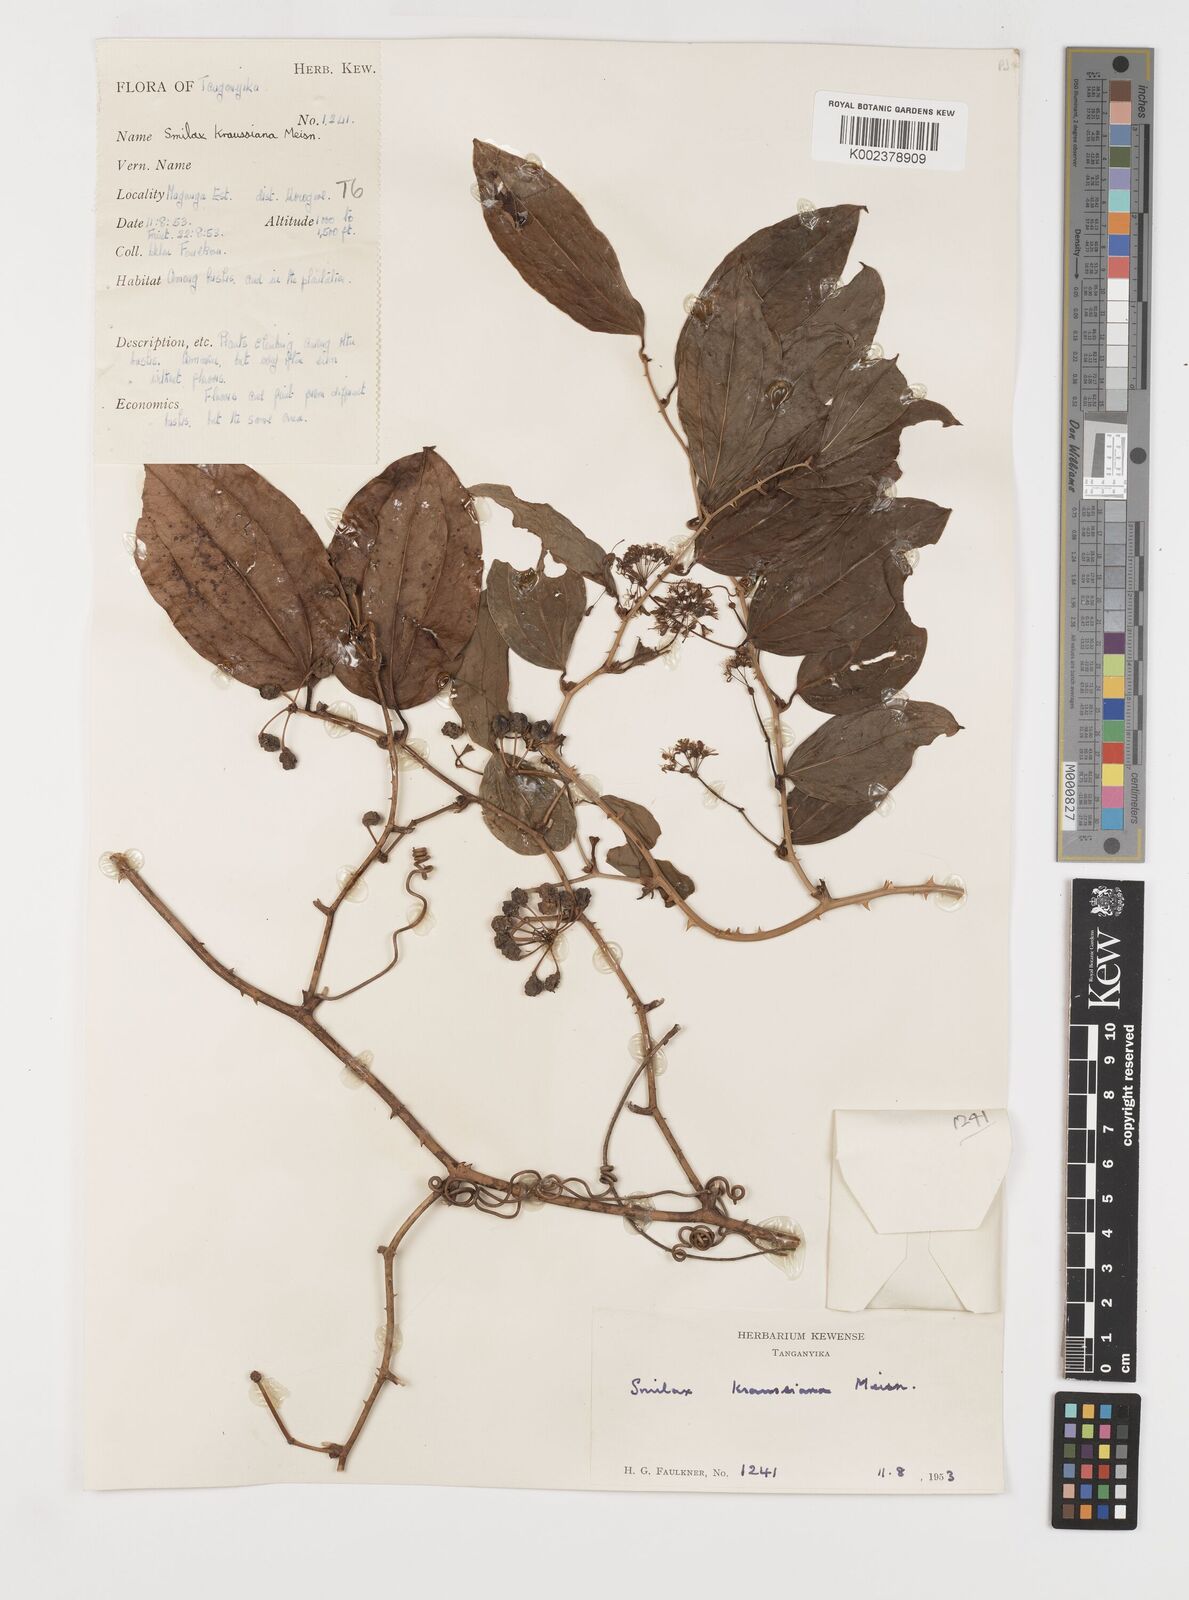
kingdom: Plantae
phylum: Tracheophyta
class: Liliopsida
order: Liliales
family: Smilacaceae
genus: Smilax
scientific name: Smilax anceps
